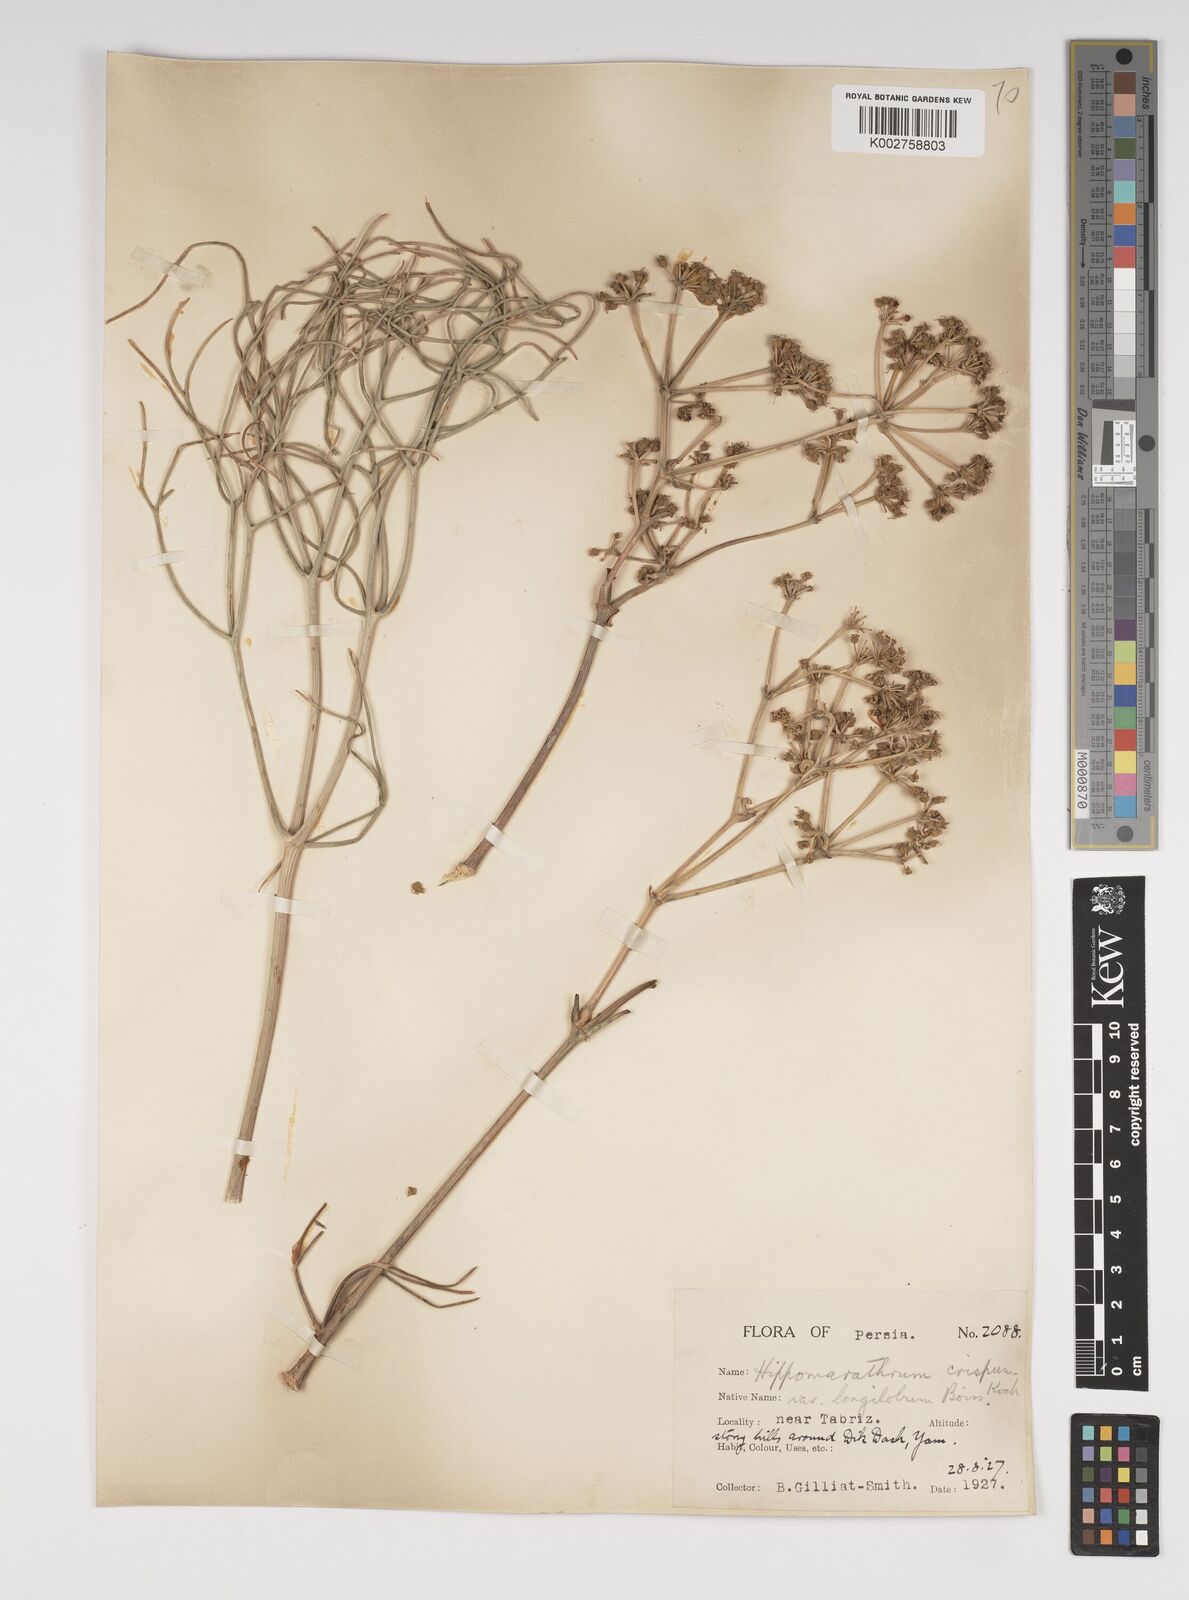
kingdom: Plantae
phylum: Tracheophyta
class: Magnoliopsida
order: Apiales
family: Apiaceae
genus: Bilacunaria
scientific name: Bilacunaria microcarpa
